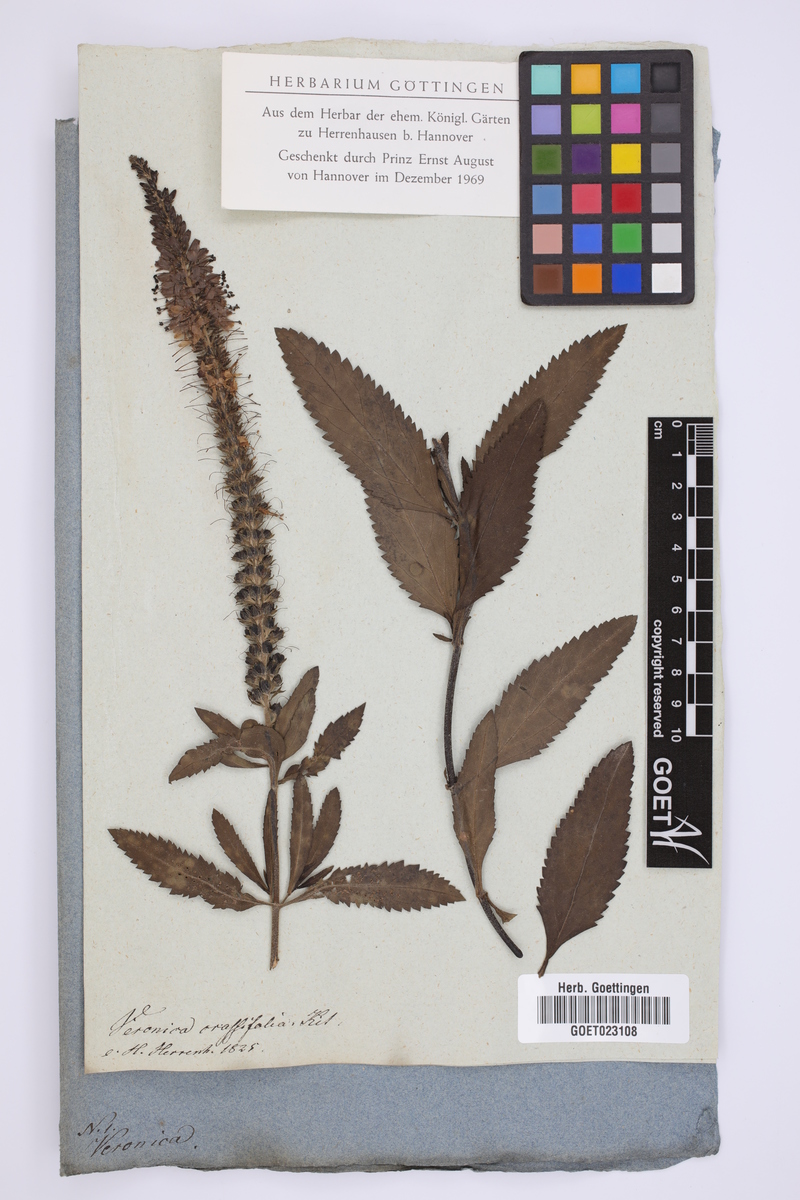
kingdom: Plantae
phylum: Tracheophyta
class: Magnoliopsida
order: Lamiales
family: Plantaginaceae
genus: Veronica
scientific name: Veronica orchidea
